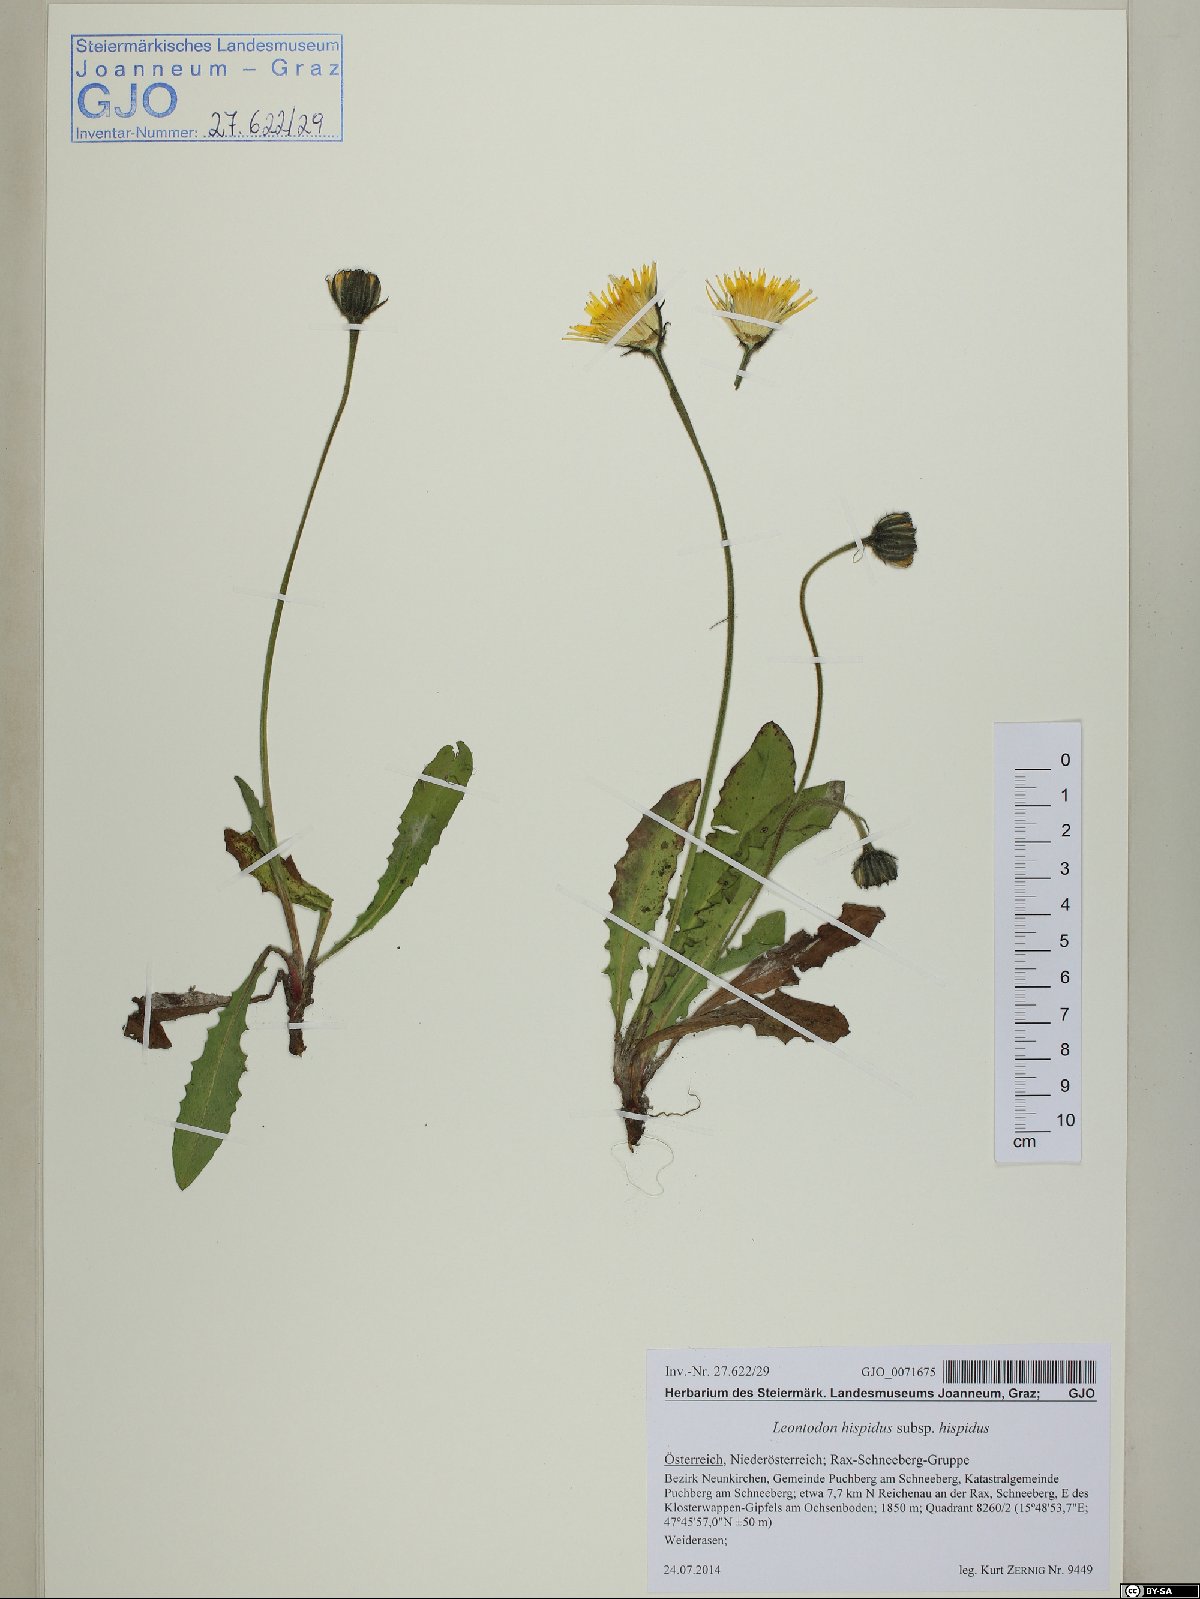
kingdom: Plantae
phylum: Tracheophyta
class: Magnoliopsida
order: Asterales
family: Asteraceae
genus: Leontodon
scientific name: Leontodon hispidus
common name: Rough hawkbit
